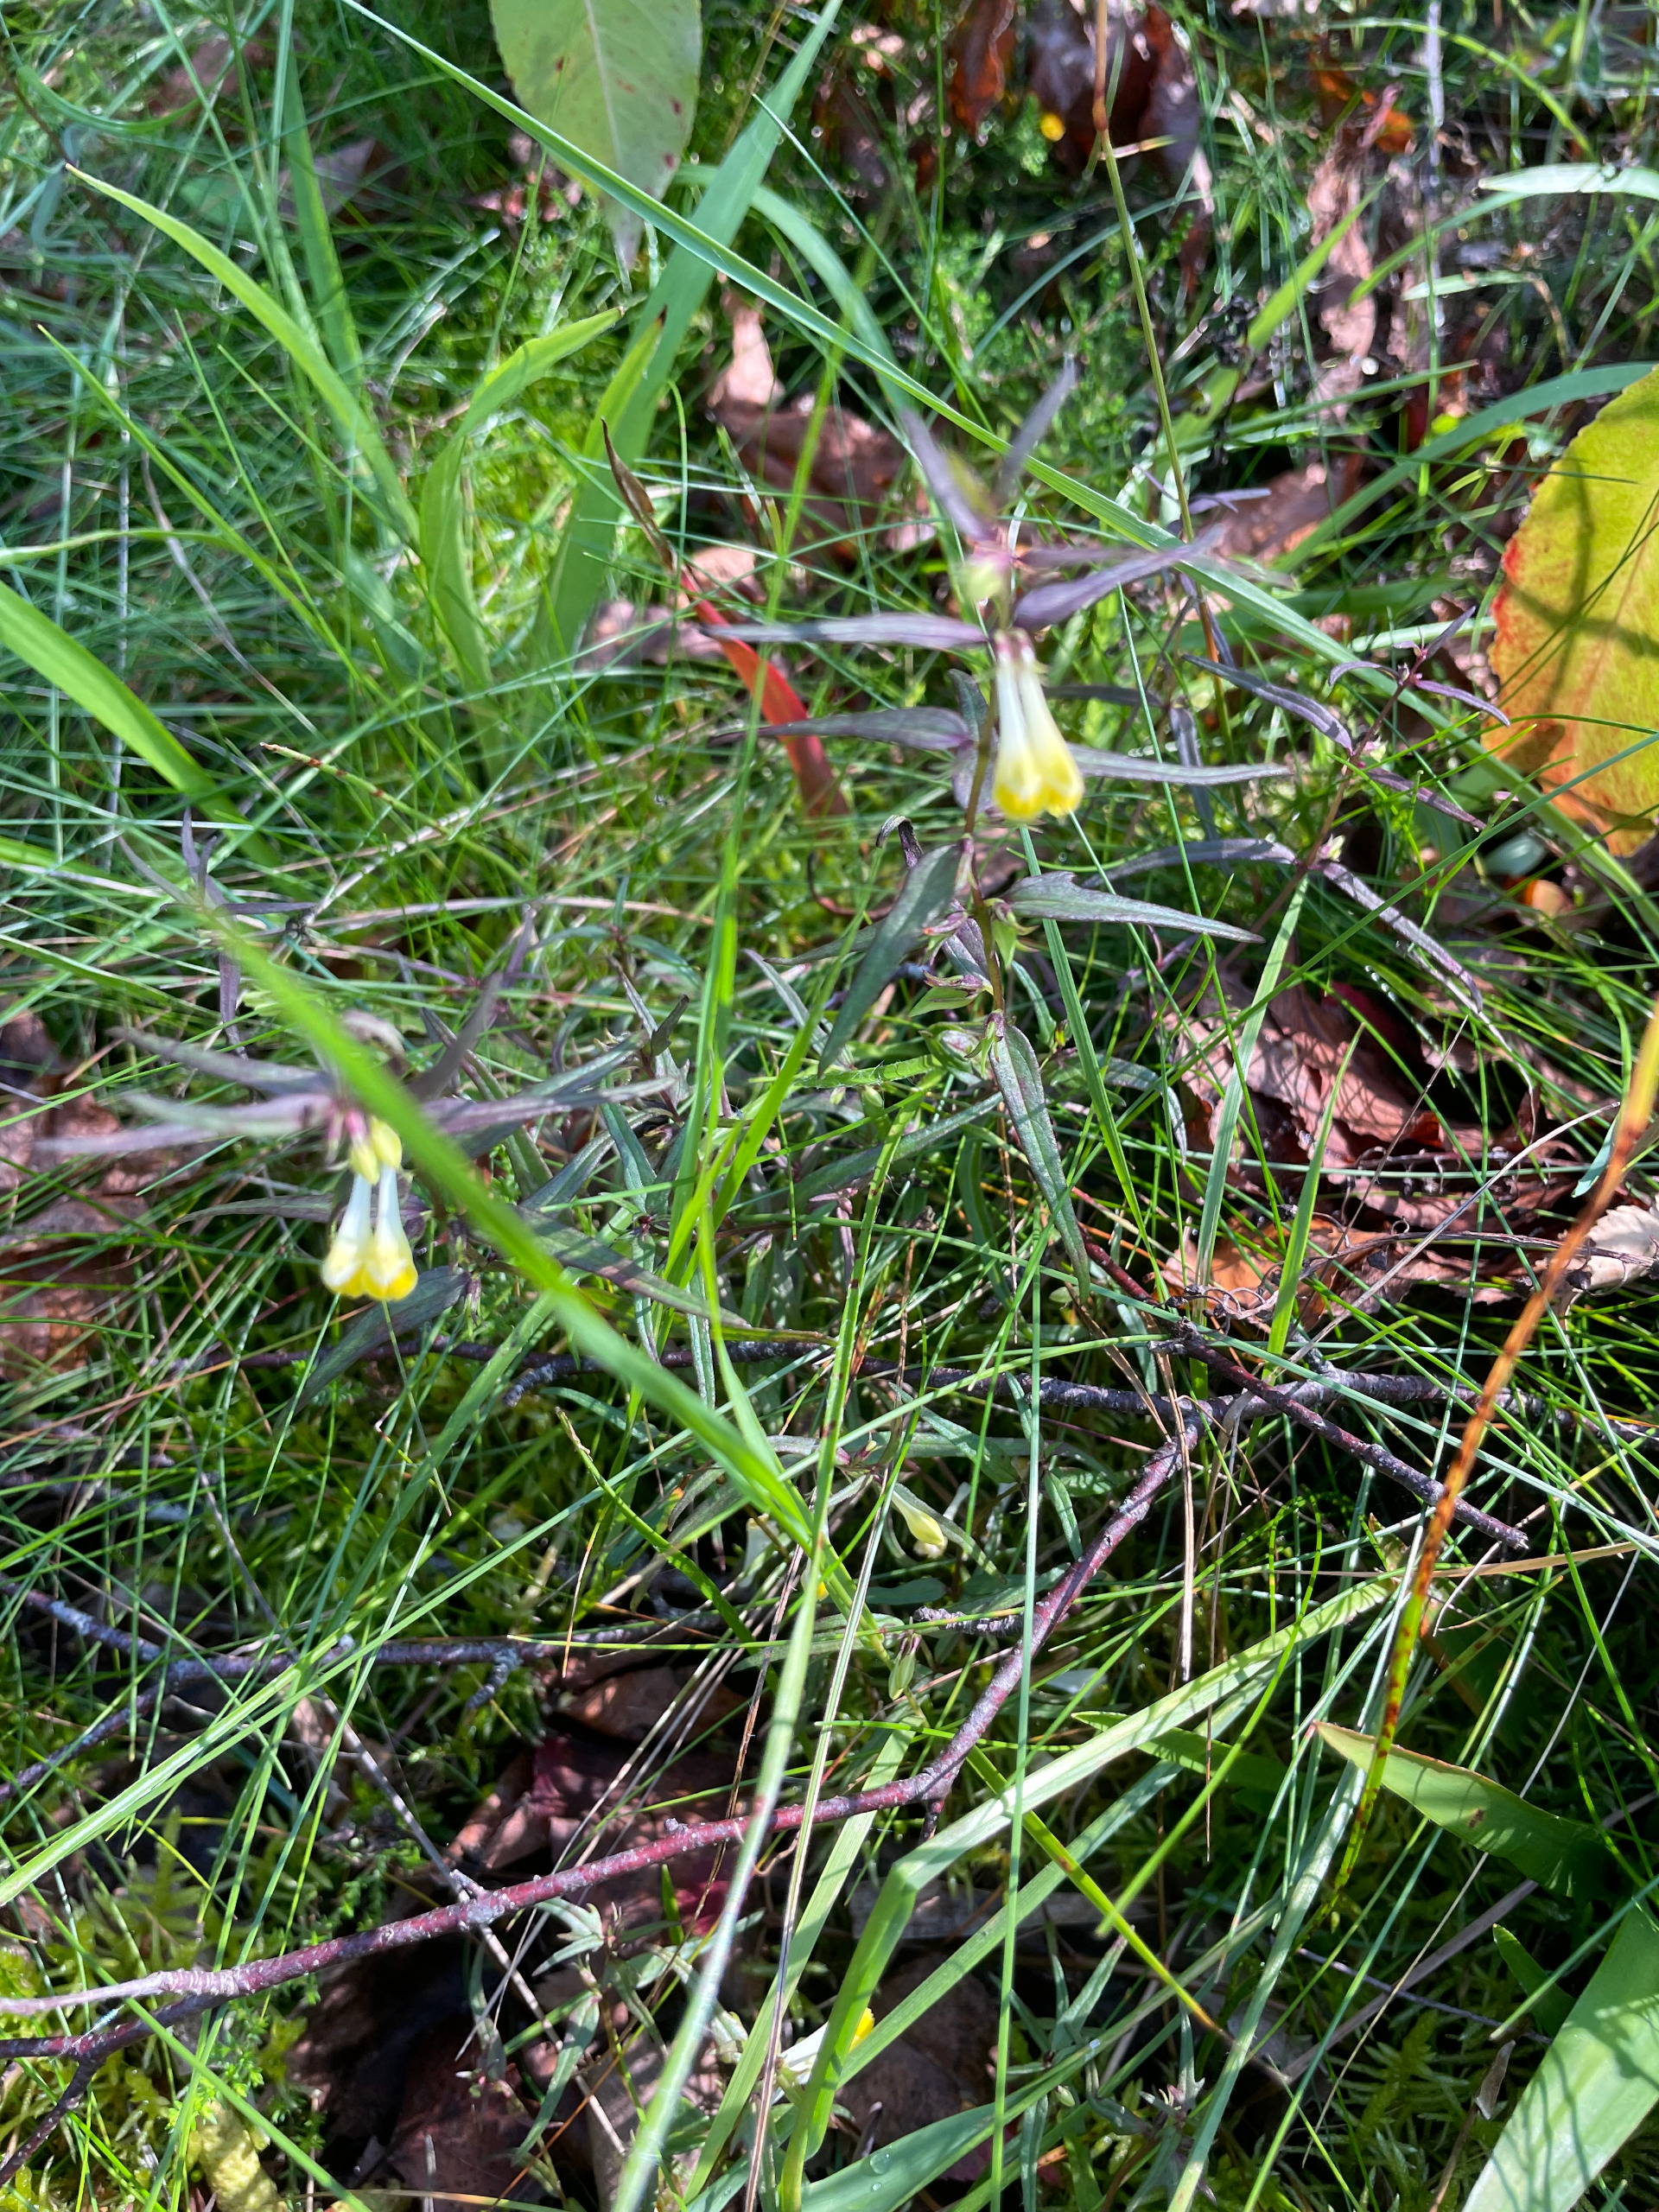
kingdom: Plantae
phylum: Tracheophyta
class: Magnoliopsida
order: Lamiales
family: Orobanchaceae
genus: Melampyrum
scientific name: Melampyrum pratense
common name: Almindelig kohvede
